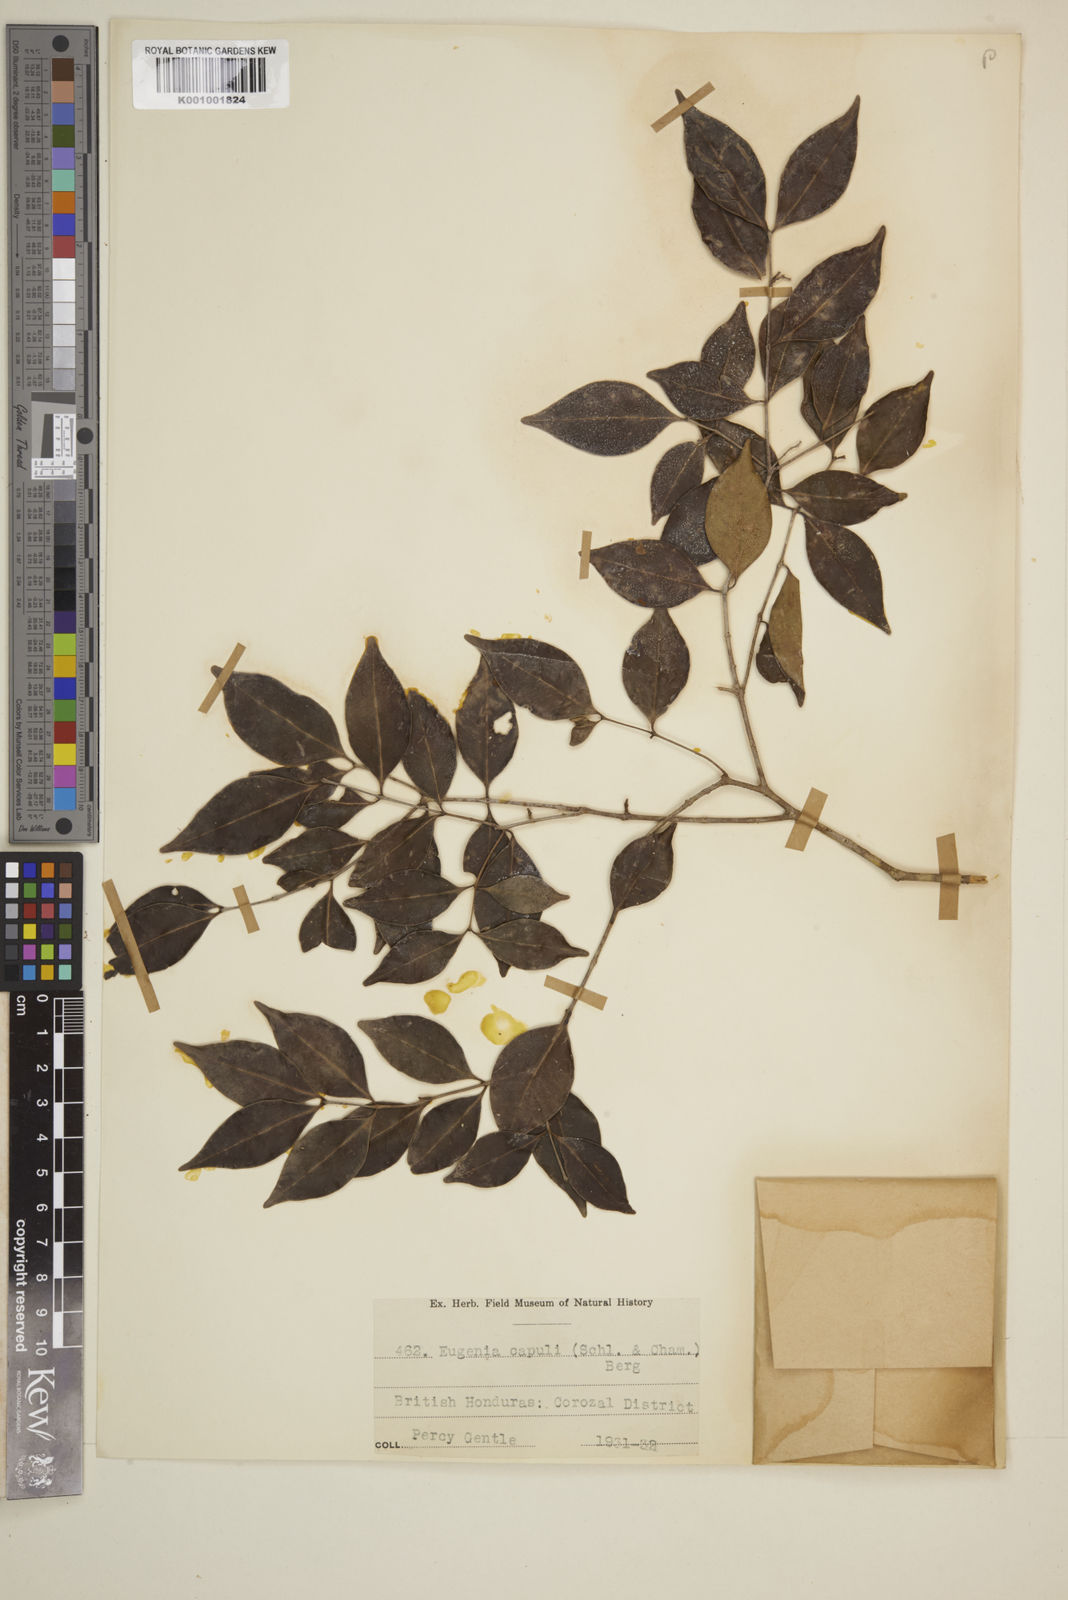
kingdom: Plantae
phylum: Tracheophyta
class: Magnoliopsida
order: Myrtales
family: Myrtaceae
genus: Eugenia
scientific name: Eugenia capuli
